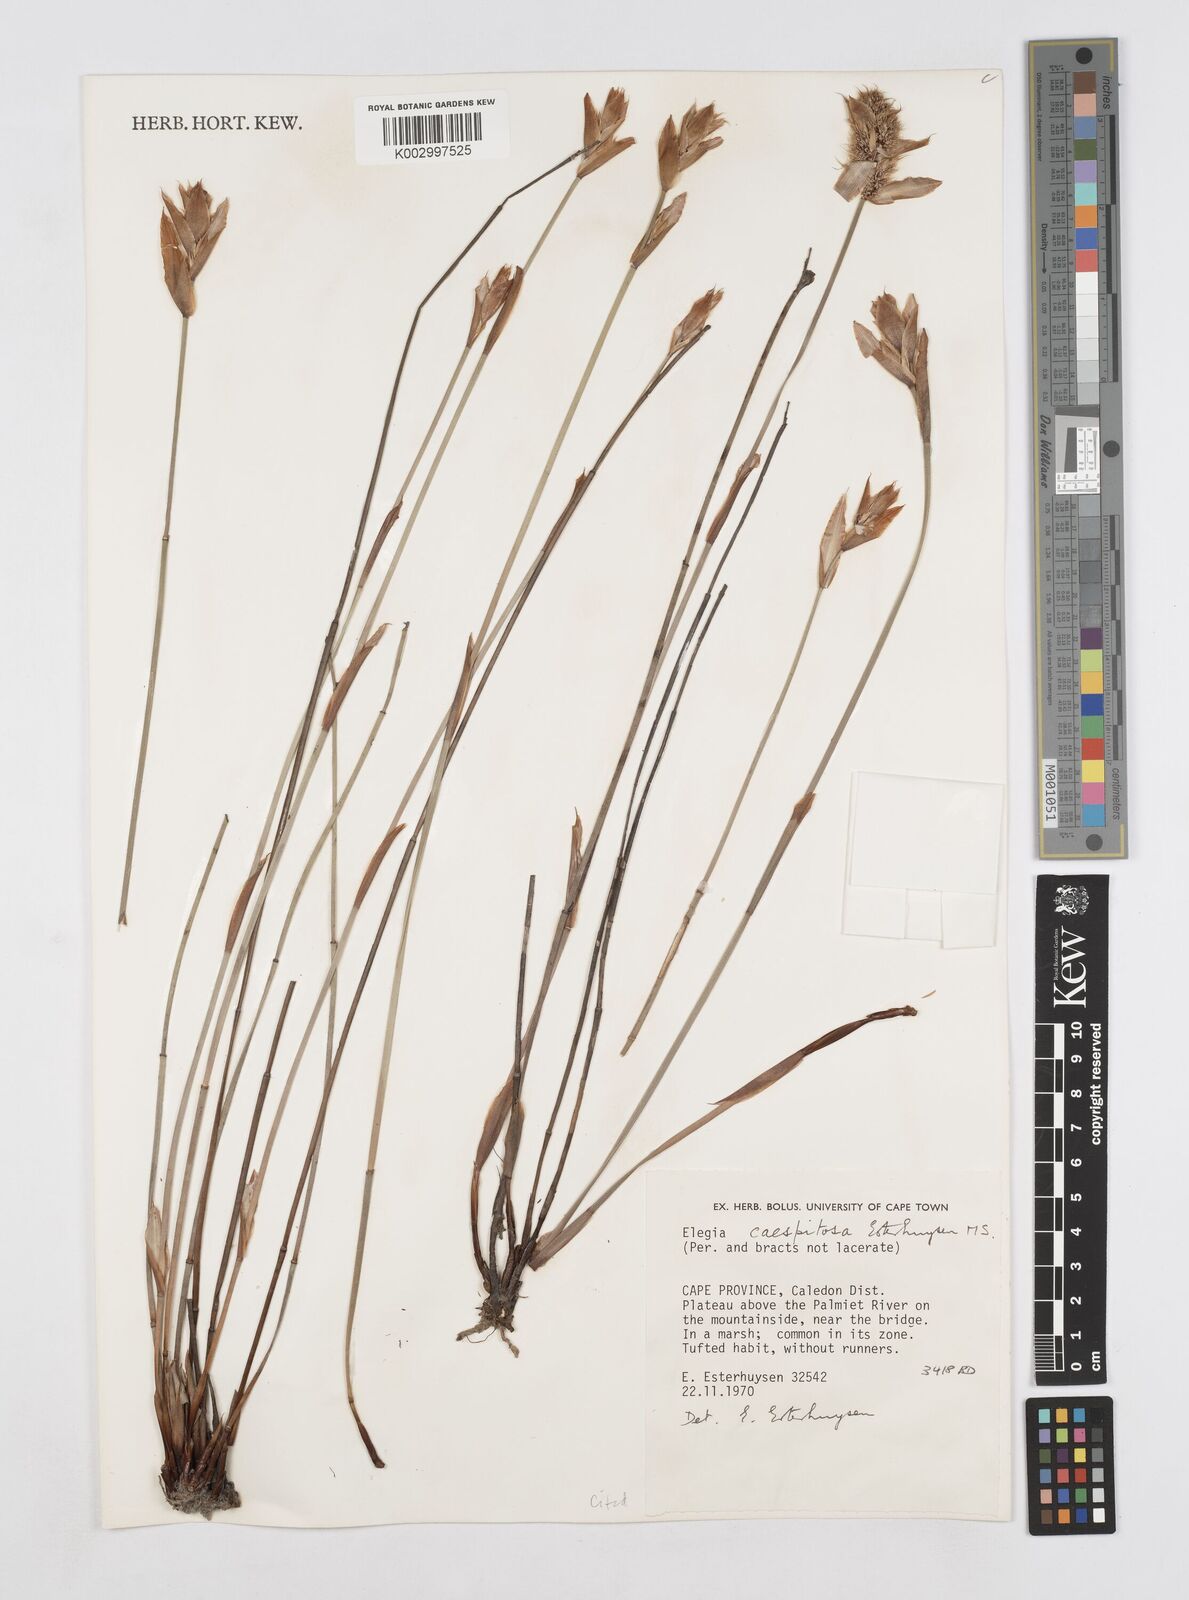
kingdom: Plantae
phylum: Tracheophyta
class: Liliopsida
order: Poales
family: Restionaceae
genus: Elegia
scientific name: Elegia caespitosa
